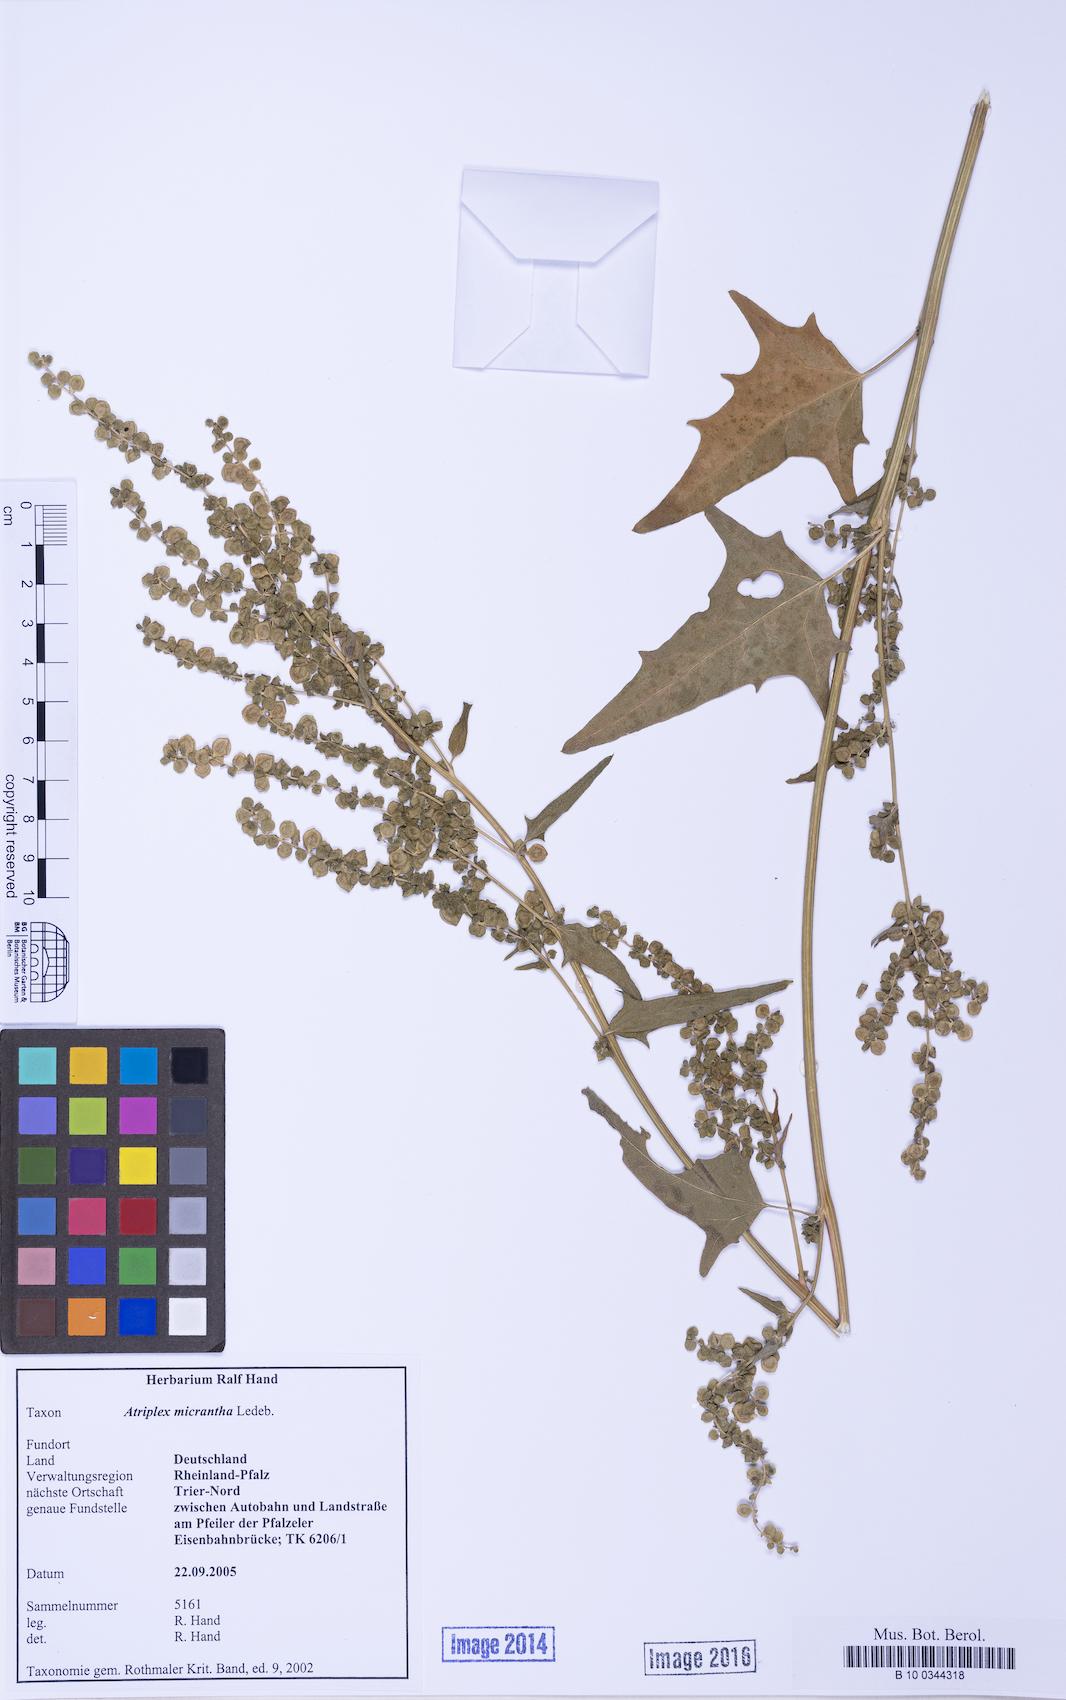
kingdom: Plantae
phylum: Tracheophyta
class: Magnoliopsida
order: Caryophyllales
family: Amaranthaceae
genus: Atriplex
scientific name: Atriplex micrantha
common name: Twoscale saltbush
